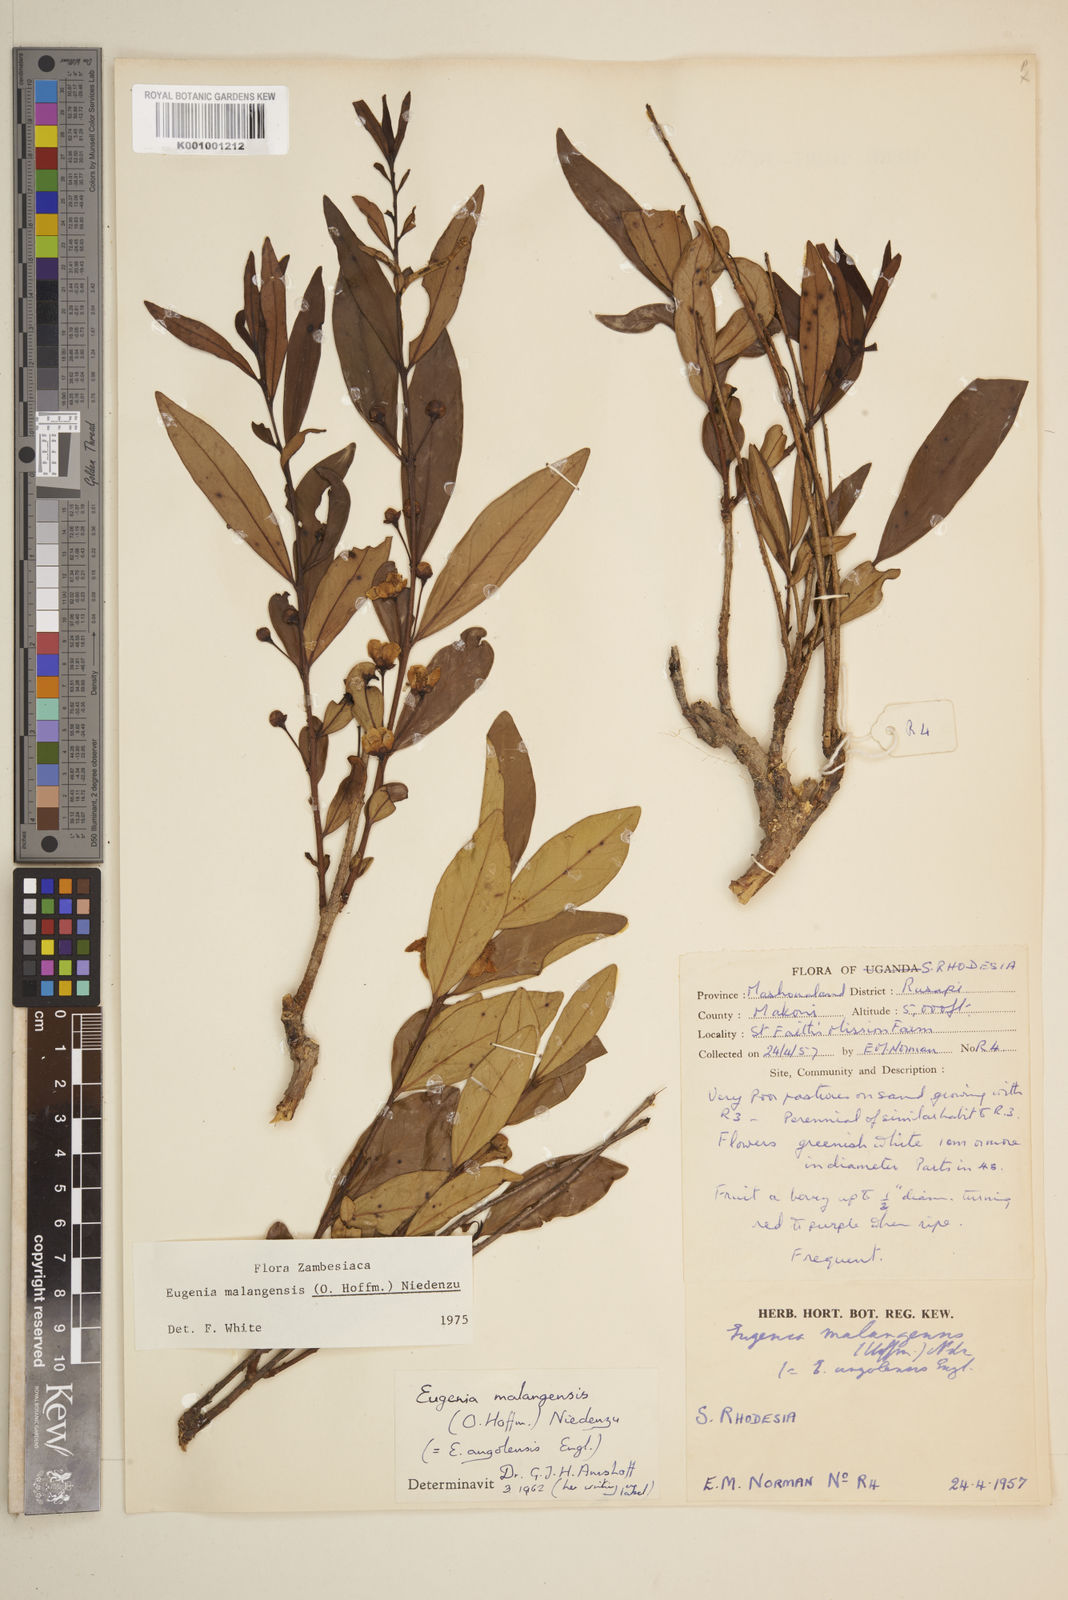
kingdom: Plantae
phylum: Tracheophyta
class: Magnoliopsida
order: Myrtales
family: Myrtaceae
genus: Eugenia
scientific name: Eugenia malangensis
